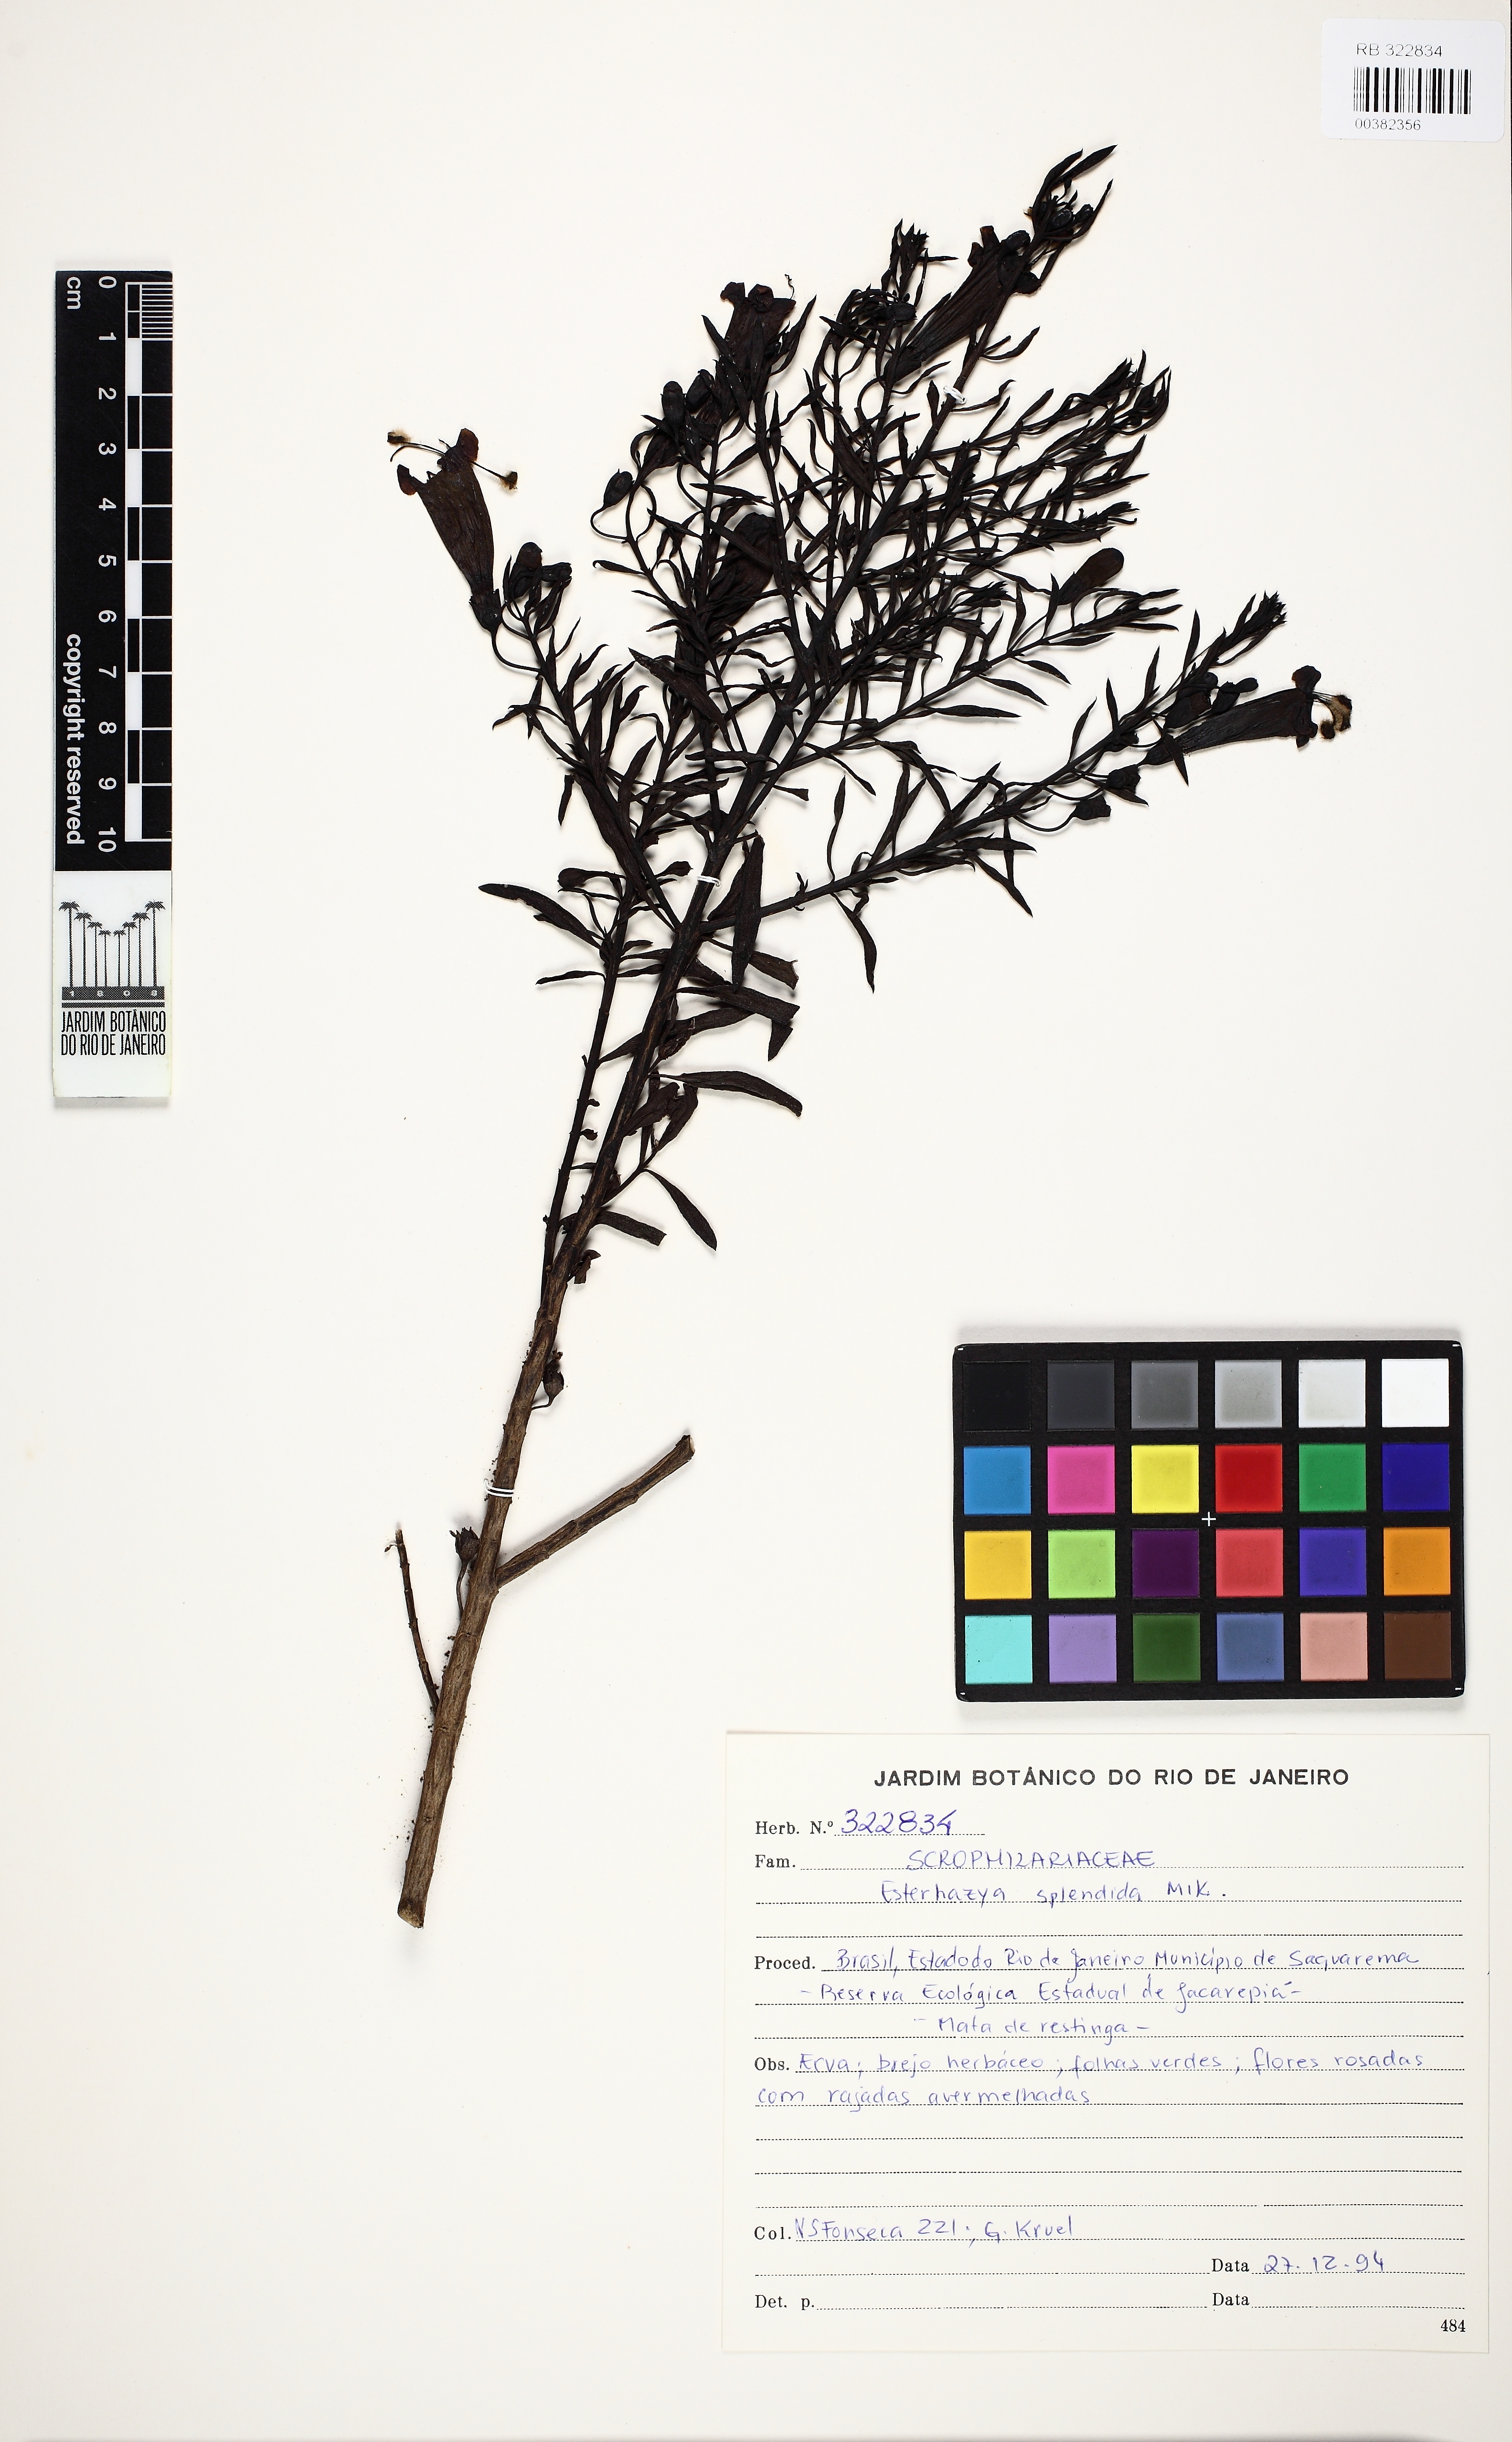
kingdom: Plantae
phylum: Tracheophyta
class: Magnoliopsida
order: Lamiales
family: Orobanchaceae
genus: Esterhazya
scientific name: Esterhazya splendida
